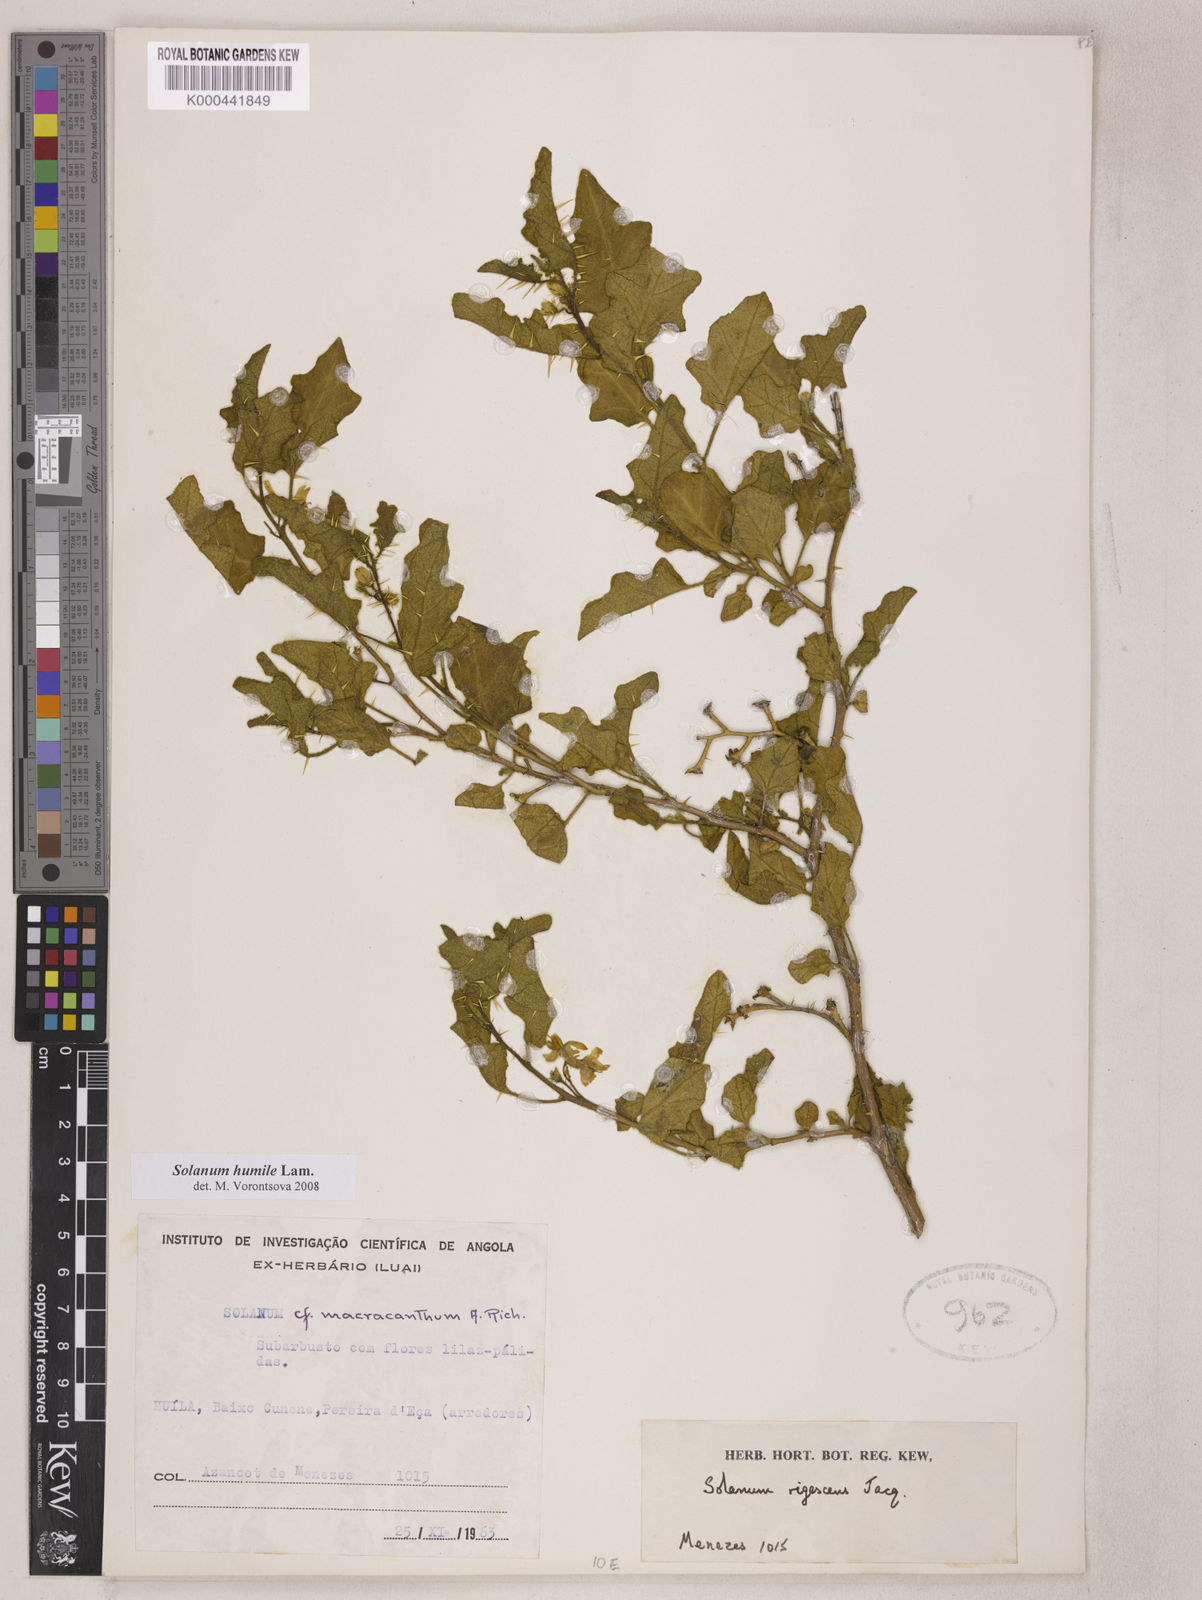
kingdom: Plantae
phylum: Tracheophyta
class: Magnoliopsida
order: Solanales
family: Solanaceae
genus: Solanum
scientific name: Solanum humile
